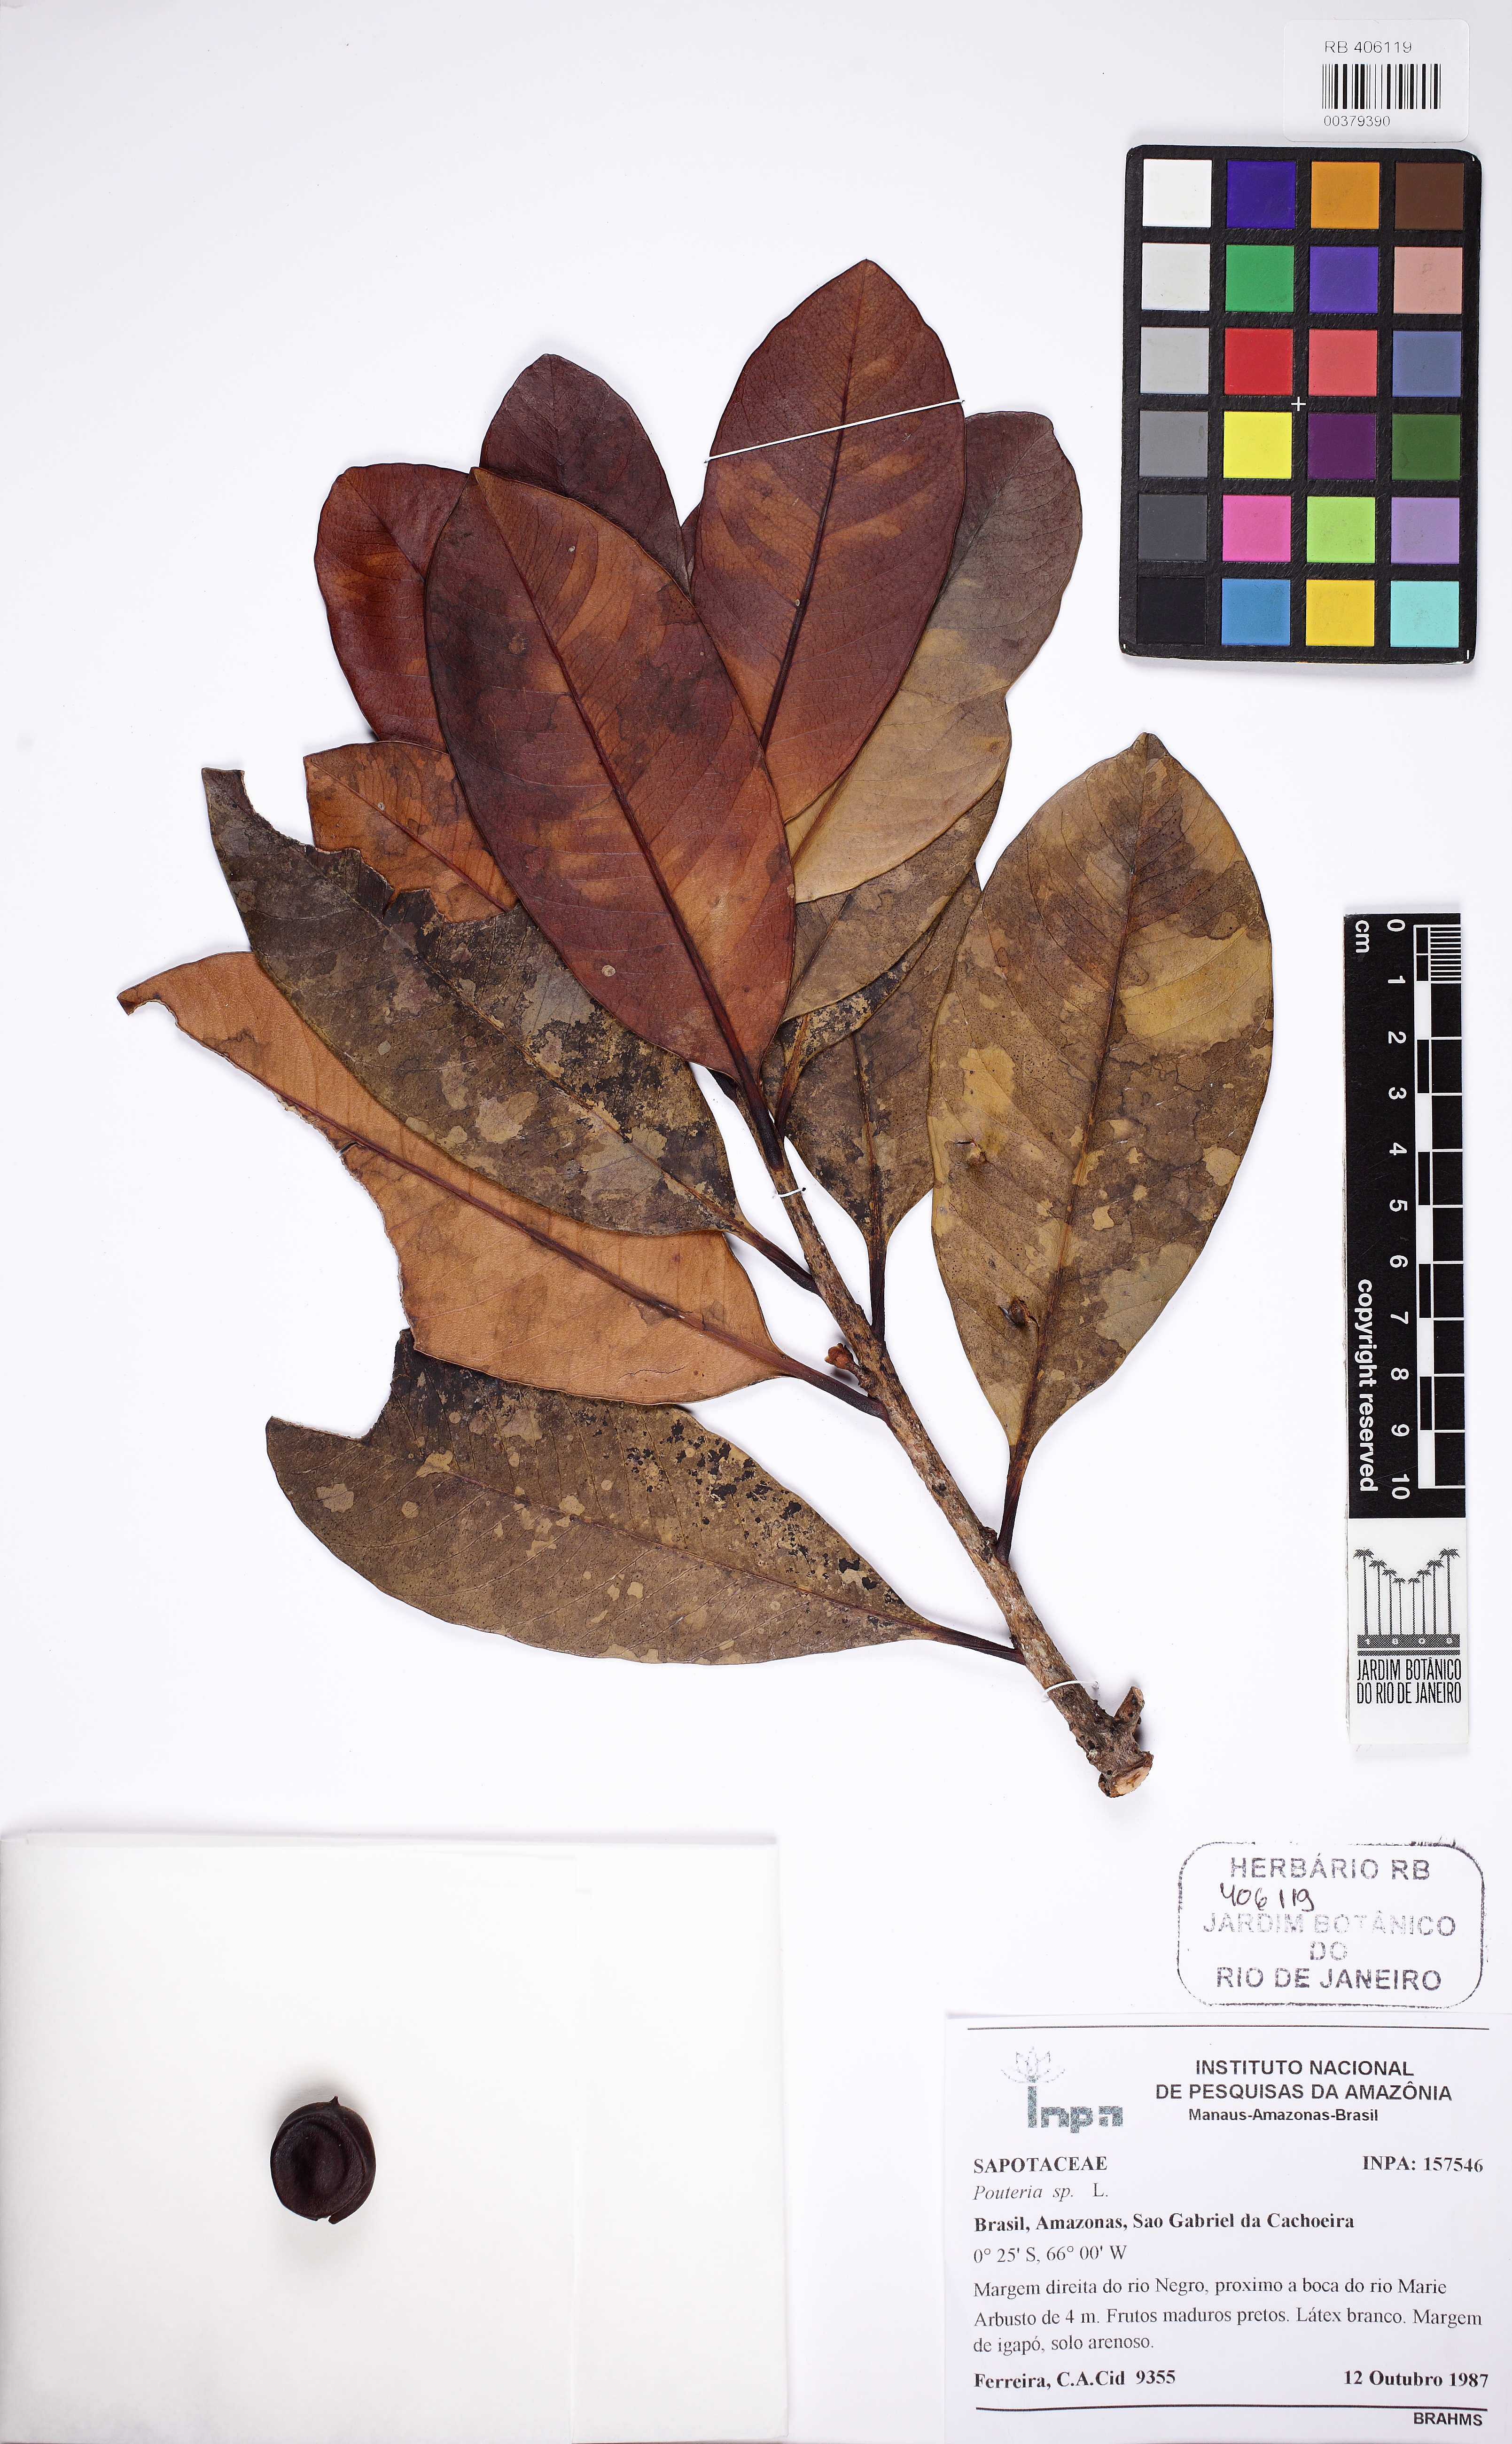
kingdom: Plantae
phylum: Tracheophyta
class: Magnoliopsida
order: Ericales
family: Sapotaceae
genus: Pouteria
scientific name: Pouteria
